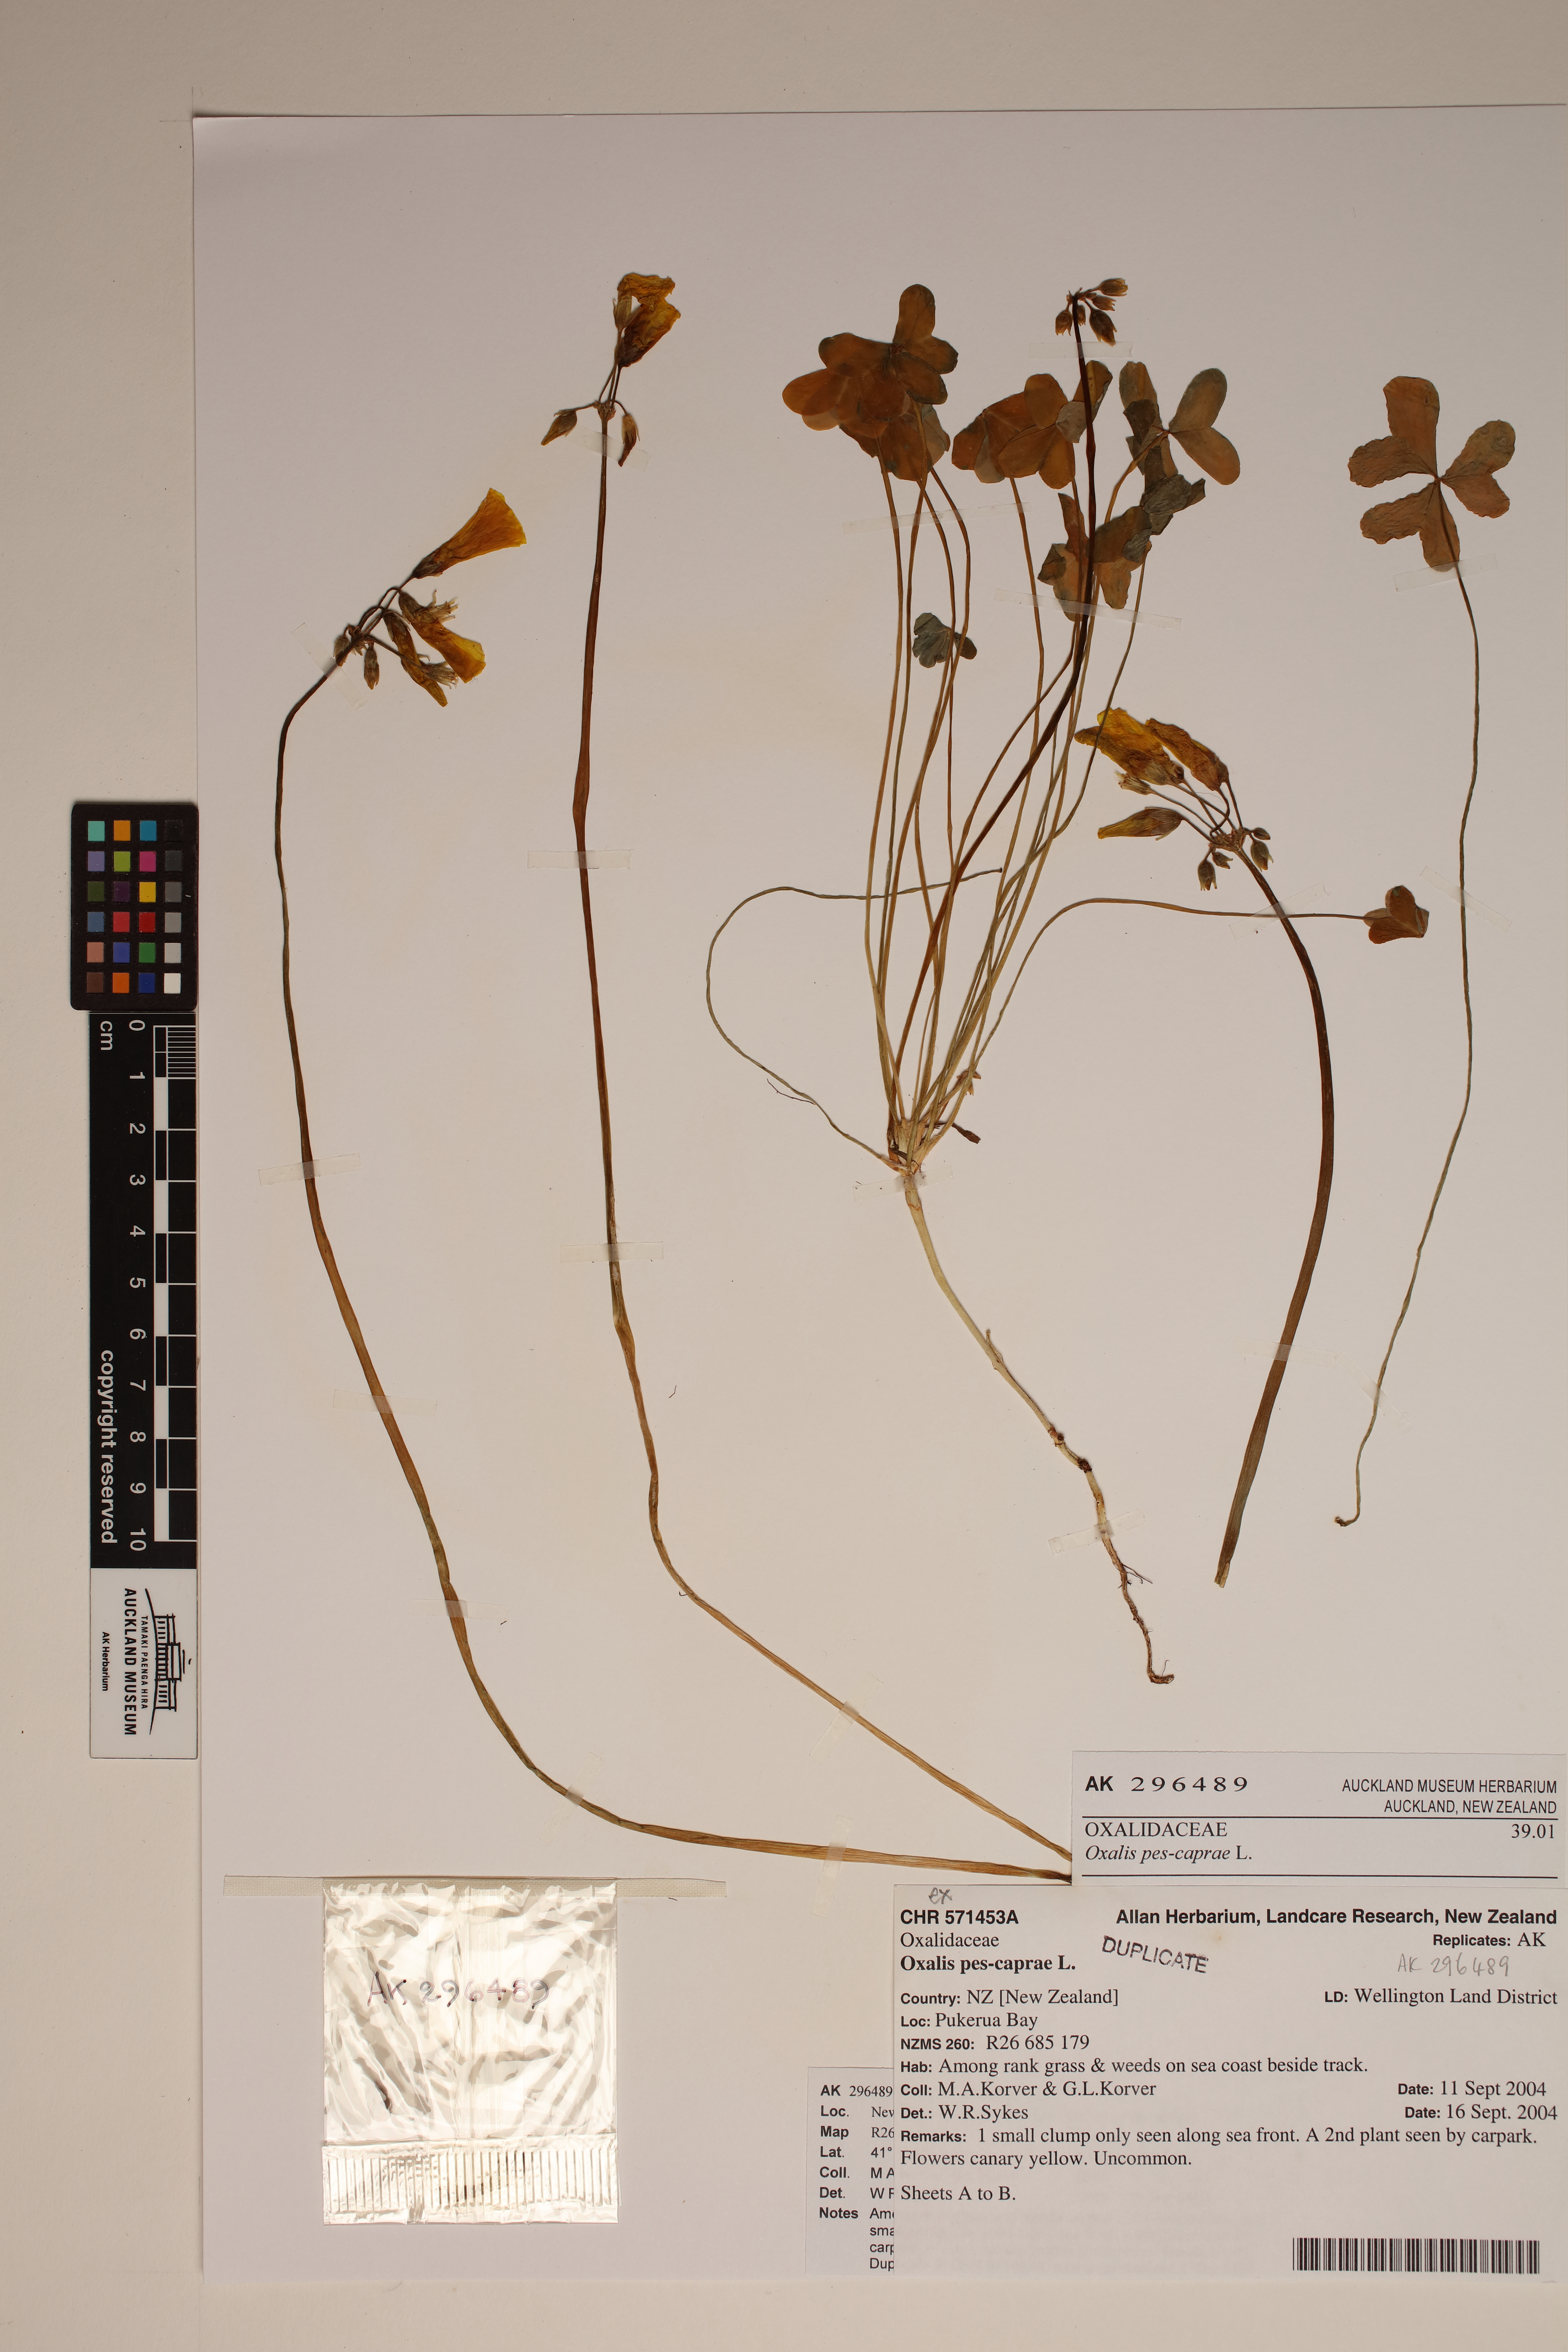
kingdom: Plantae
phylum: Tracheophyta
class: Magnoliopsida
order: Oxalidales
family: Oxalidaceae
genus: Oxalis
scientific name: Oxalis pes-caprae
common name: Bermuda-buttercup
